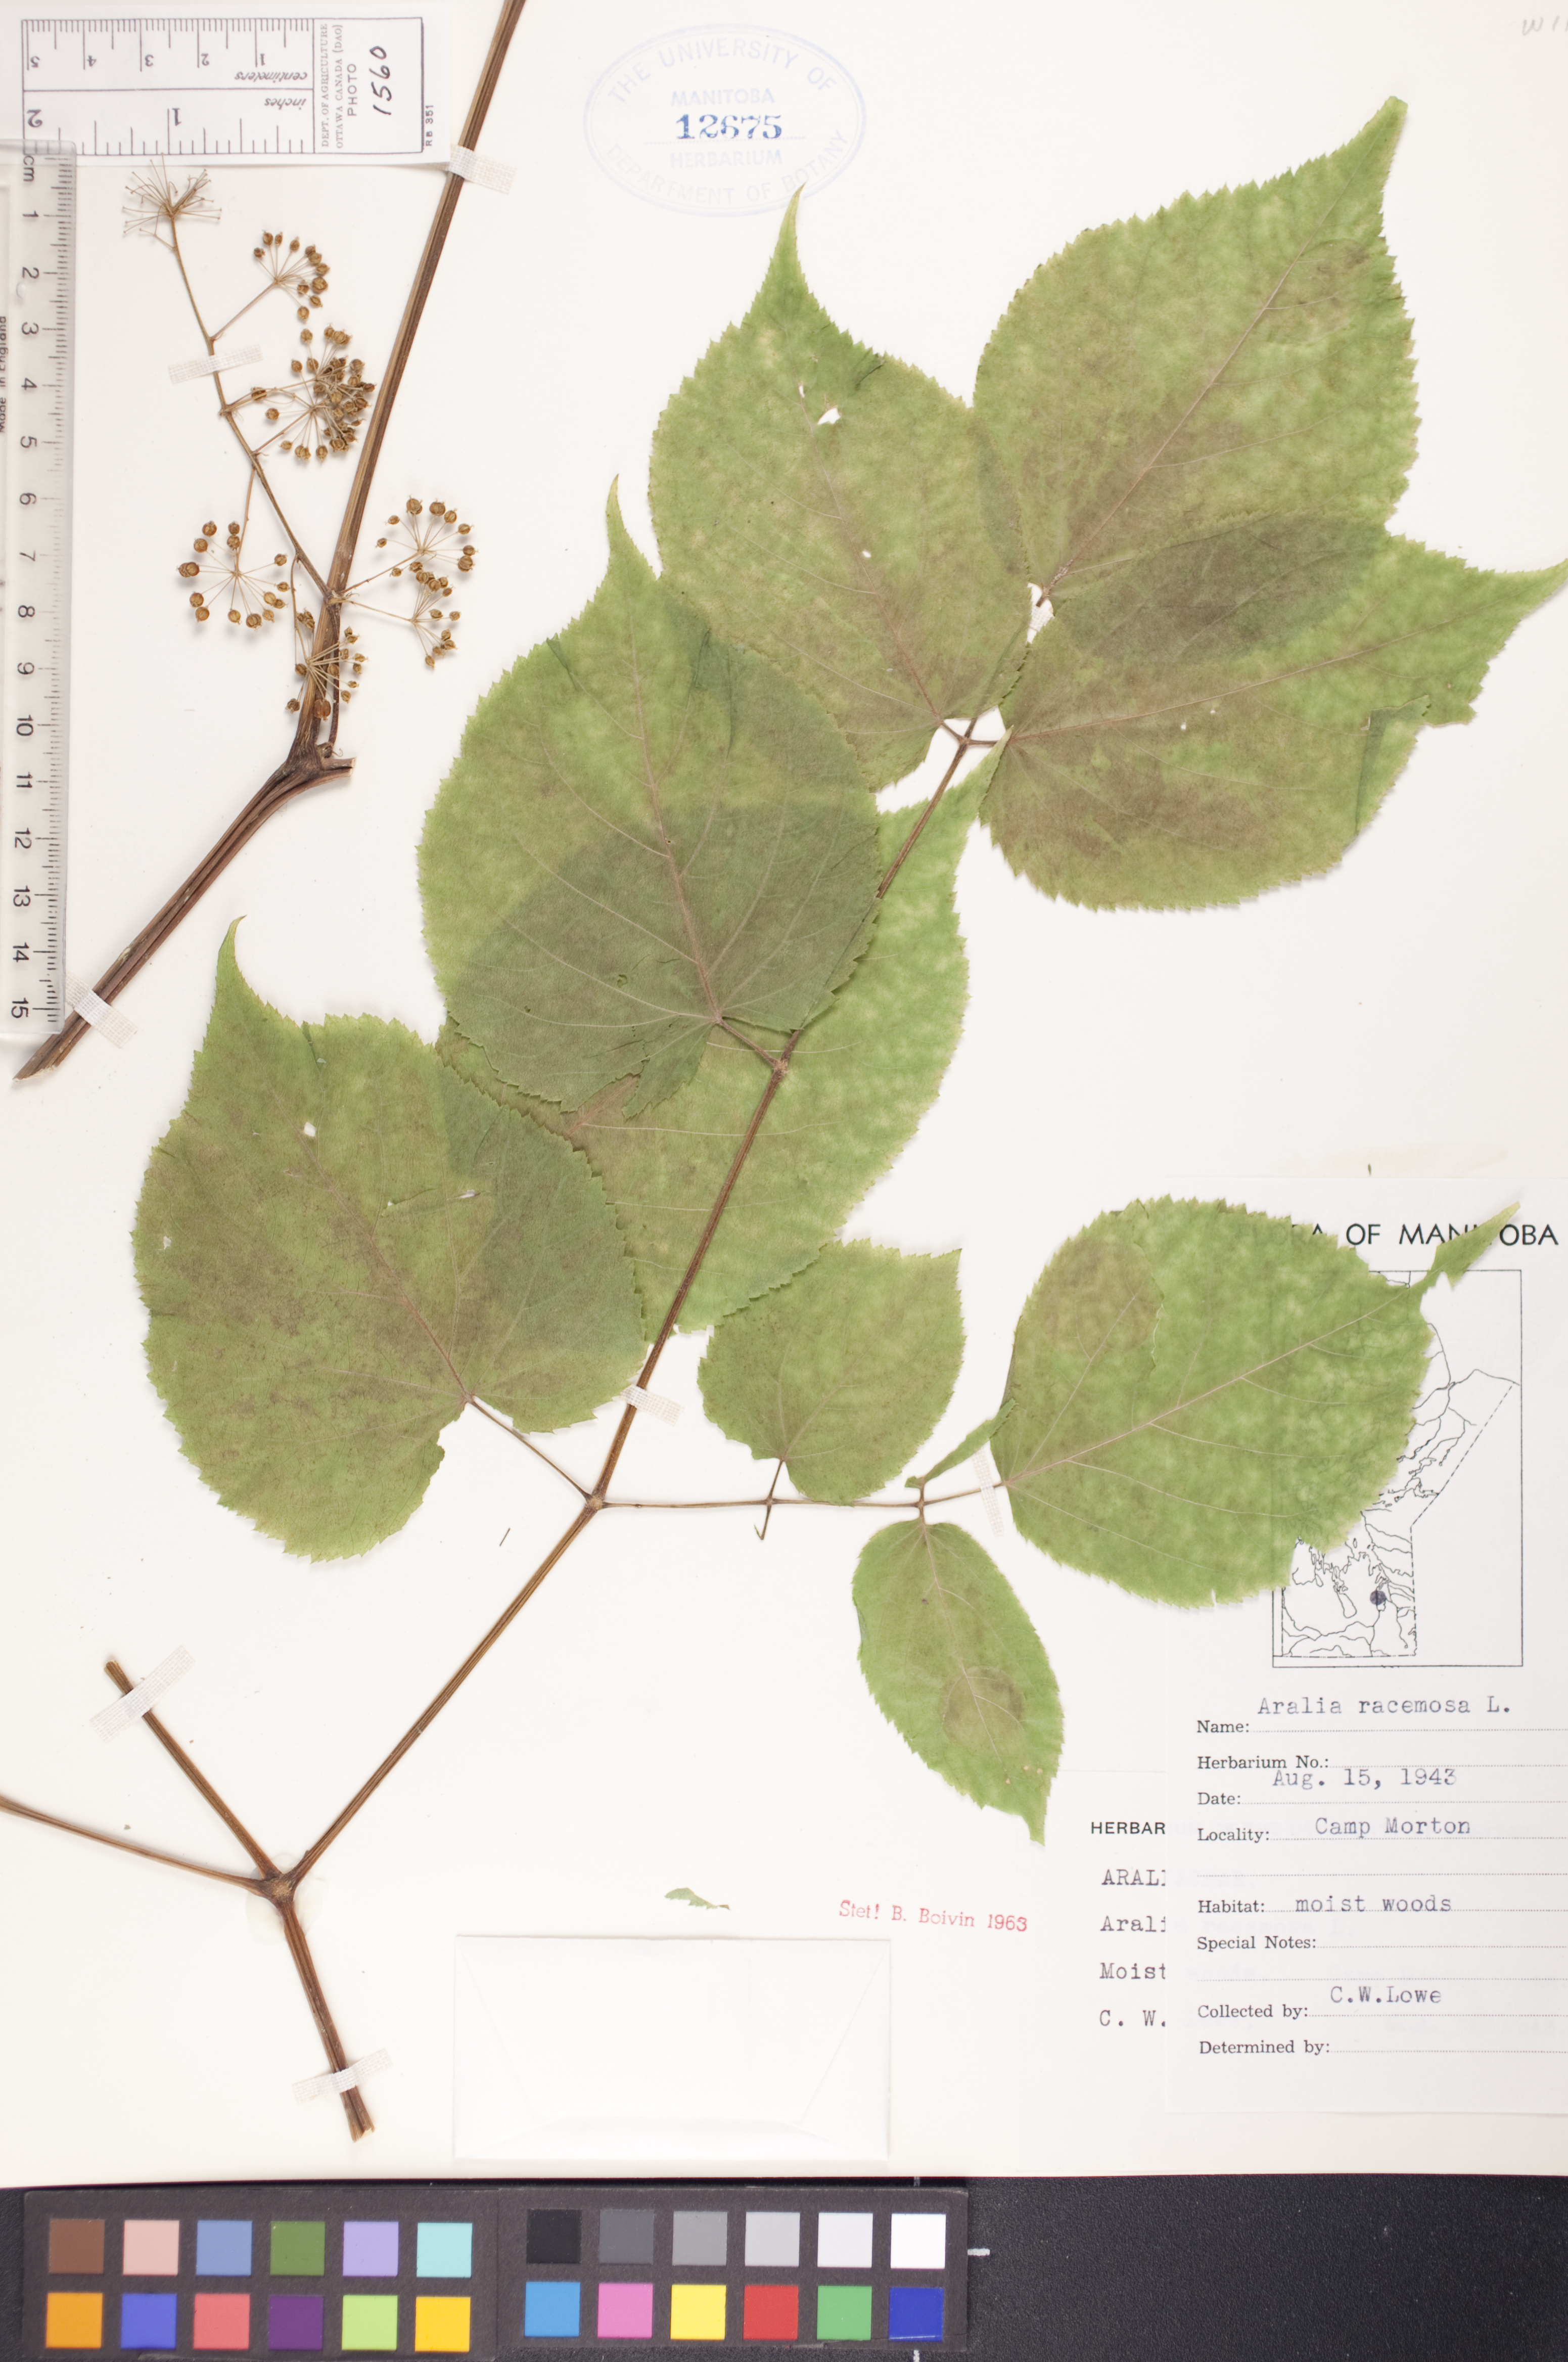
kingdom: Plantae
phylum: Tracheophyta
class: Magnoliopsida
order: Apiales
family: Araliaceae
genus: Aralia
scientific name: Aralia racemosa
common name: American-spikenard
